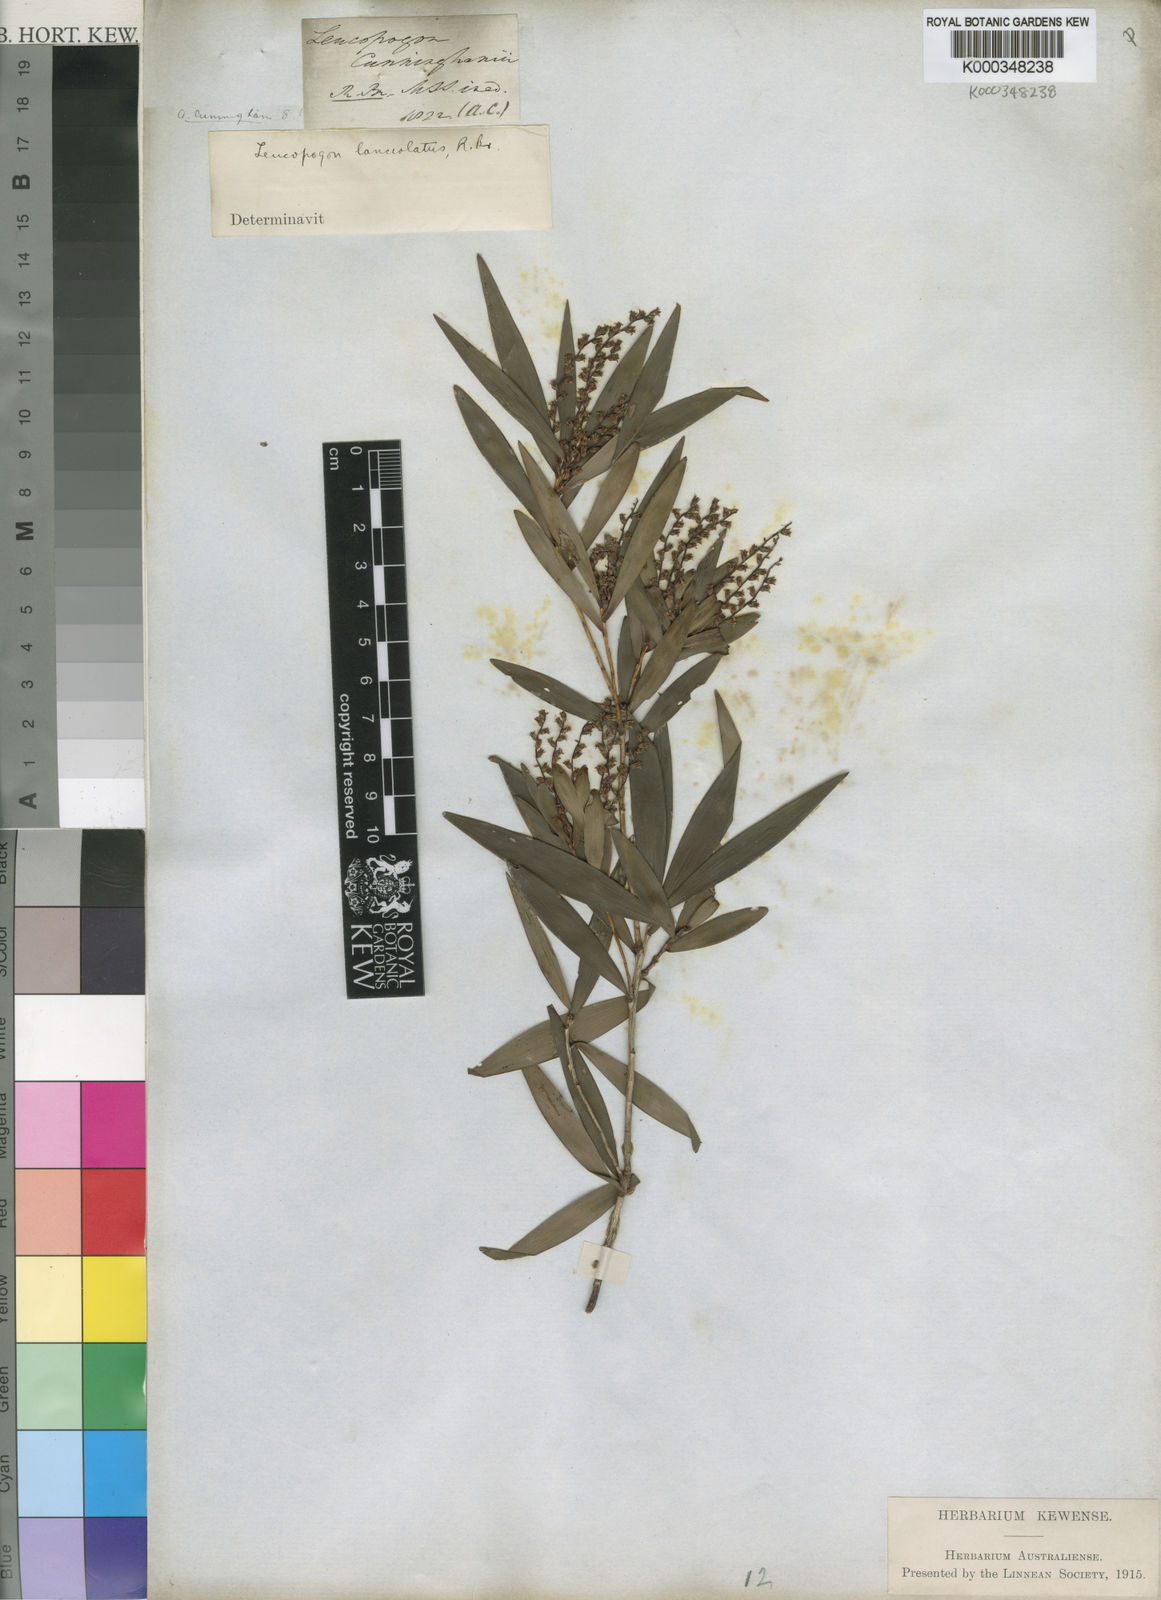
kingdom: Plantae
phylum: Tracheophyta
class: Magnoliopsida
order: Ericales
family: Ericaceae
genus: Leucopogon
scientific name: Leucopogon lanceolatus
